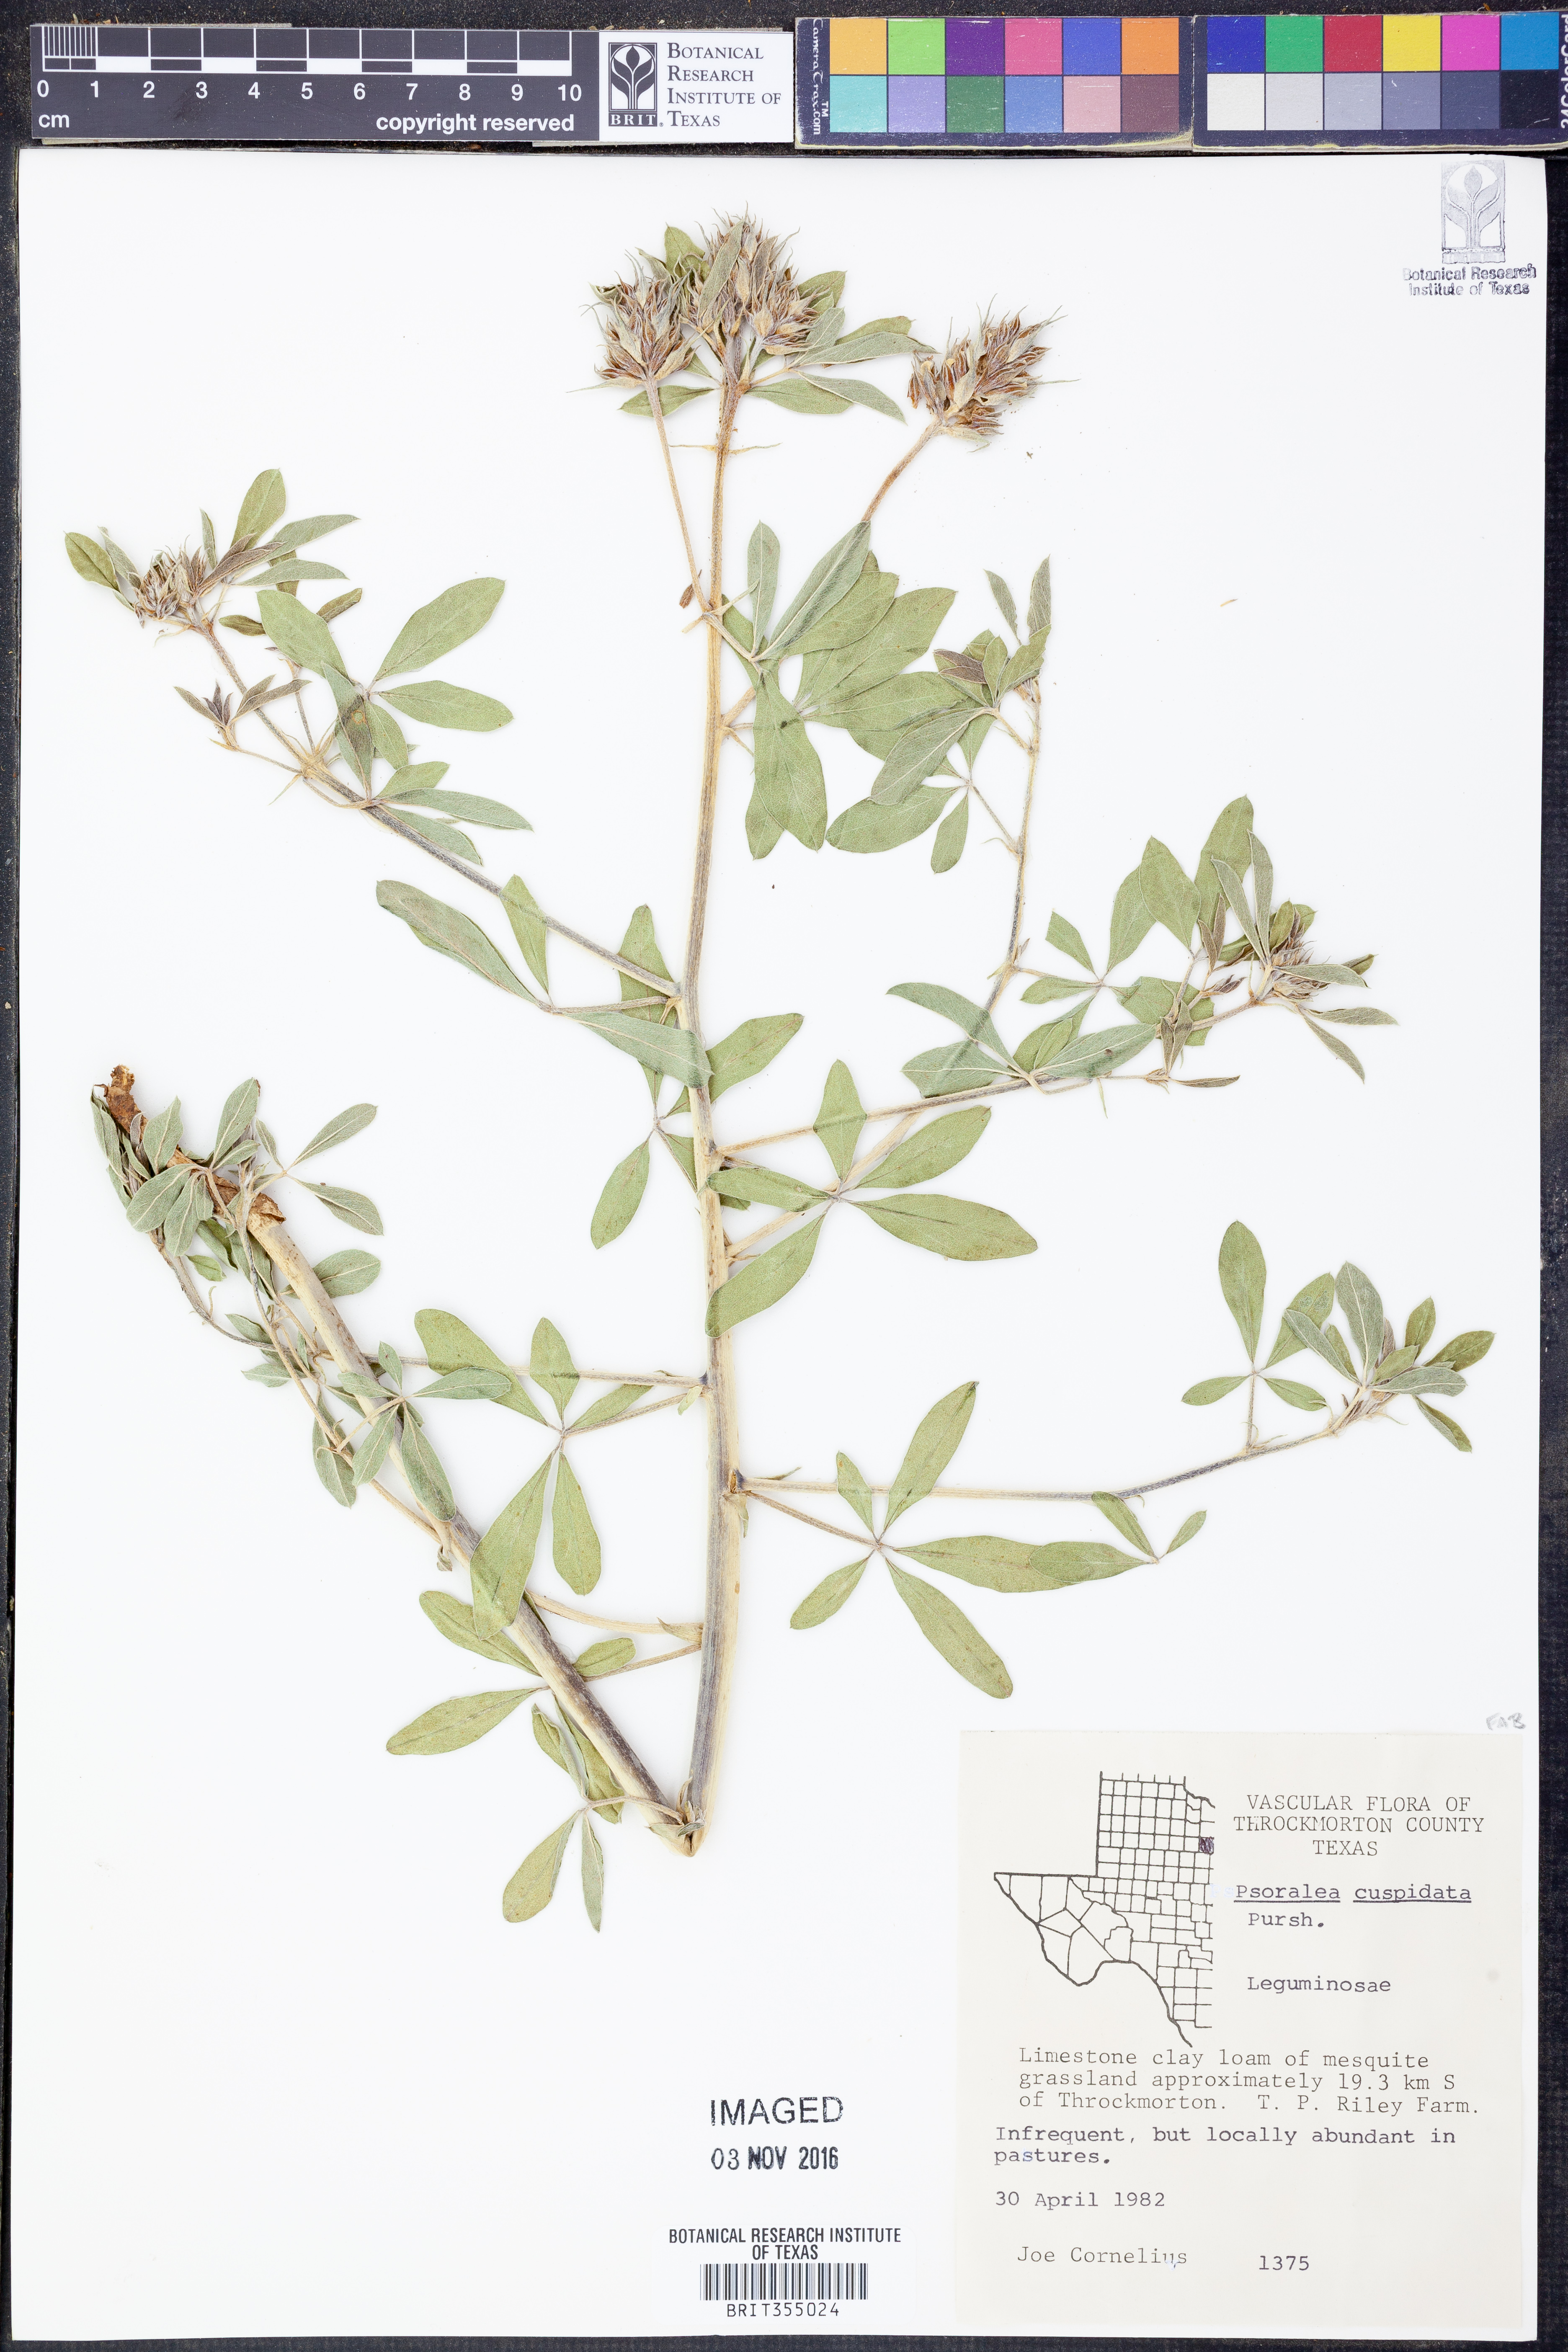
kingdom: Plantae
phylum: Tracheophyta
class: Magnoliopsida
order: Fabales
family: Fabaceae
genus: Pediomelum
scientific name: Pediomelum cuspidatum
